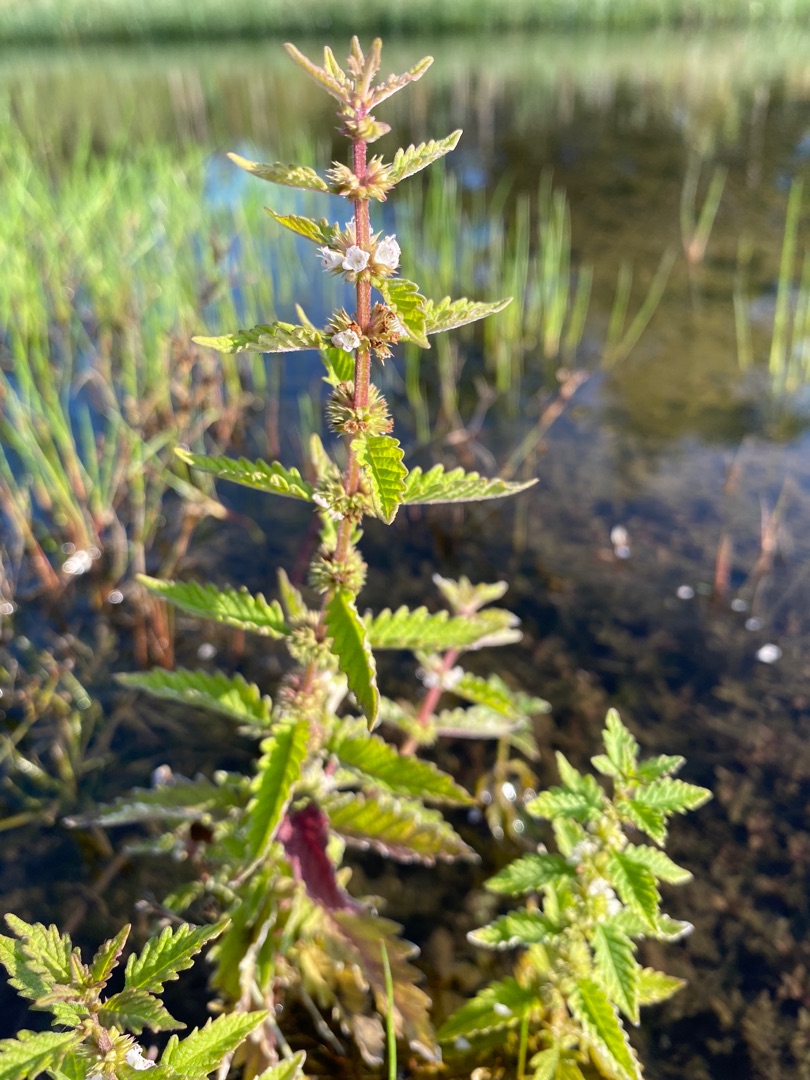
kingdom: Plantae
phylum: Tracheophyta
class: Magnoliopsida
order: Lamiales
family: Lamiaceae
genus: Lycopus
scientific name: Lycopus europaeus
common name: Sværtevæld
